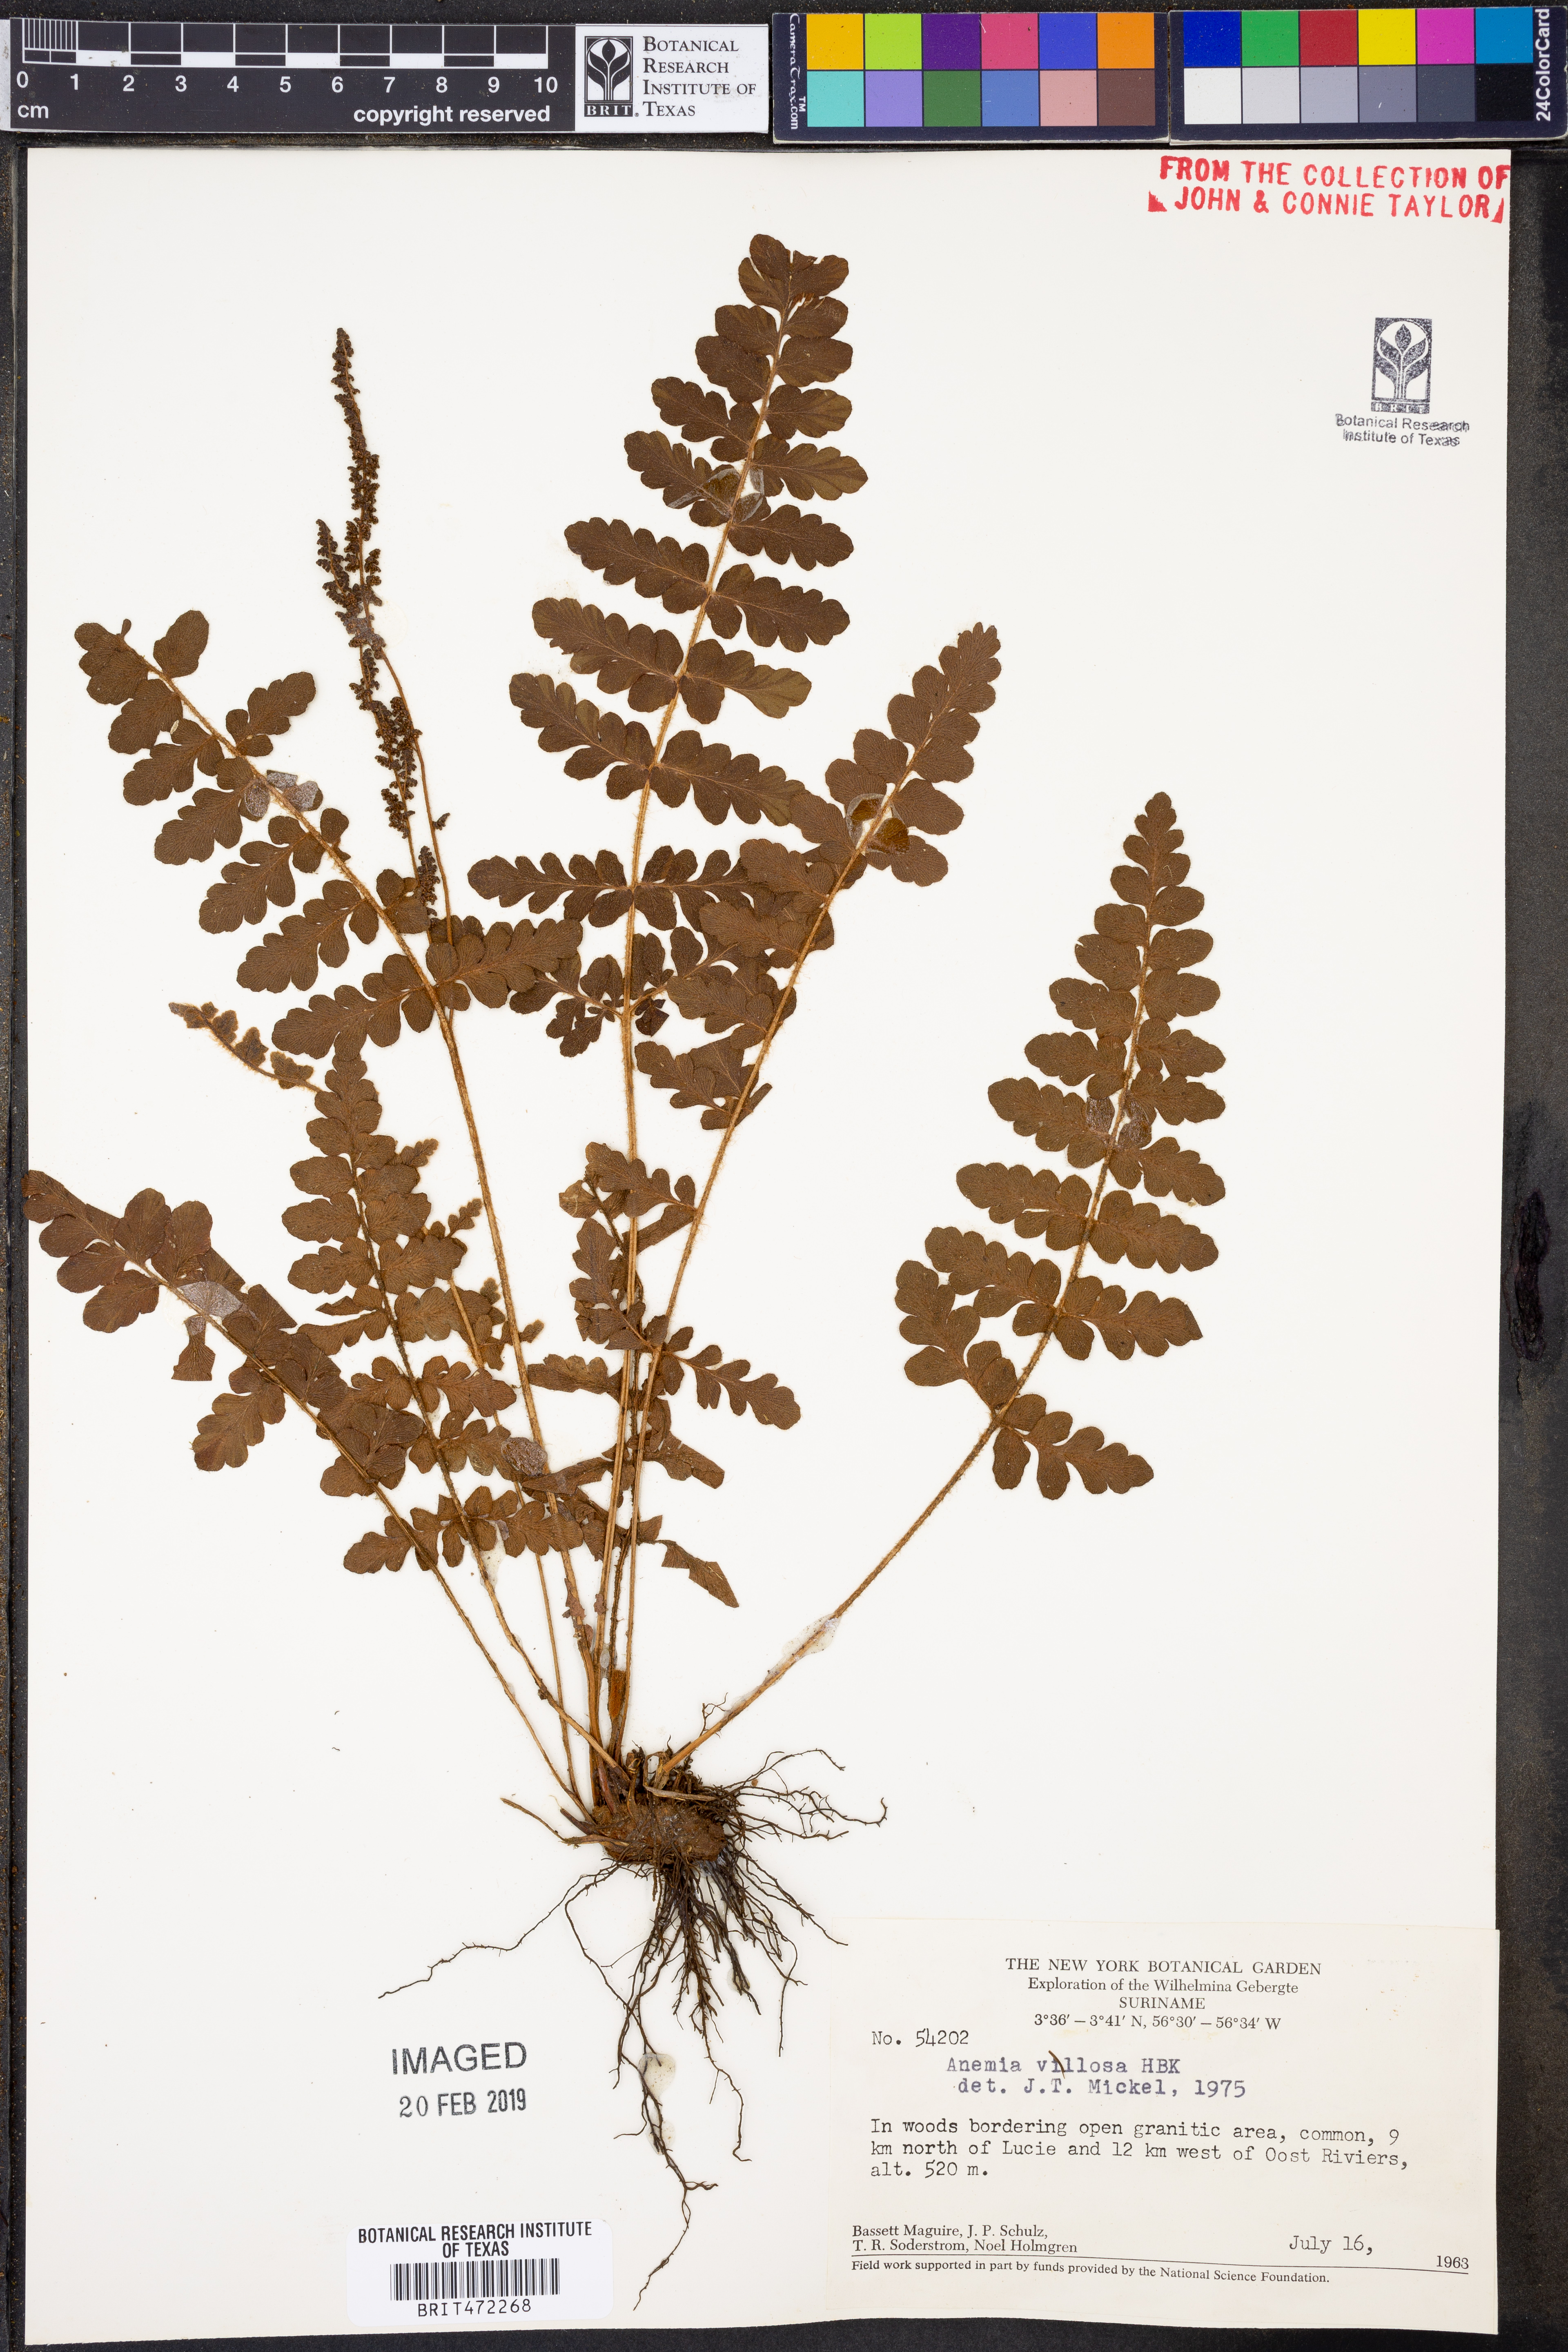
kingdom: Plantae
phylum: Tracheophyta
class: Polypodiopsida
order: Schizaeales
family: Anemiaceae
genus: Anemia
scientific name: Anemia villosa
